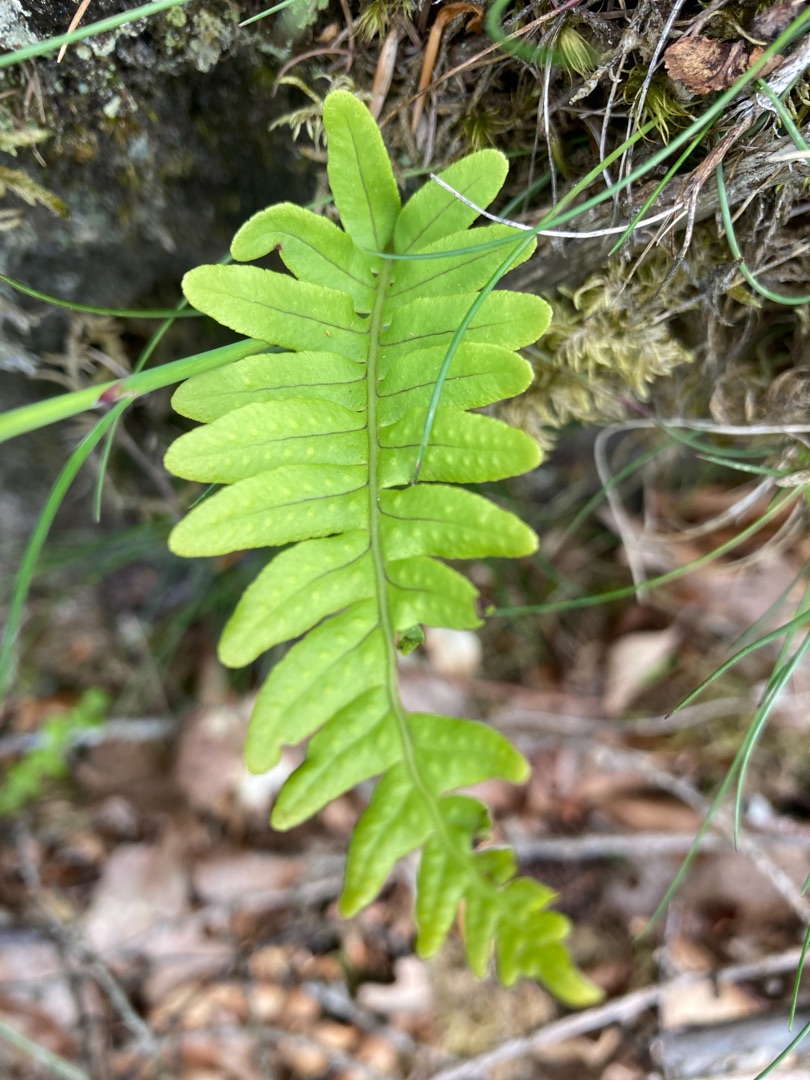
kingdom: Plantae
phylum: Tracheophyta
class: Polypodiopsida
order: Polypodiales
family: Polypodiaceae
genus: Polypodium
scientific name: Polypodium vulgare
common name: Almindelig engelsød
